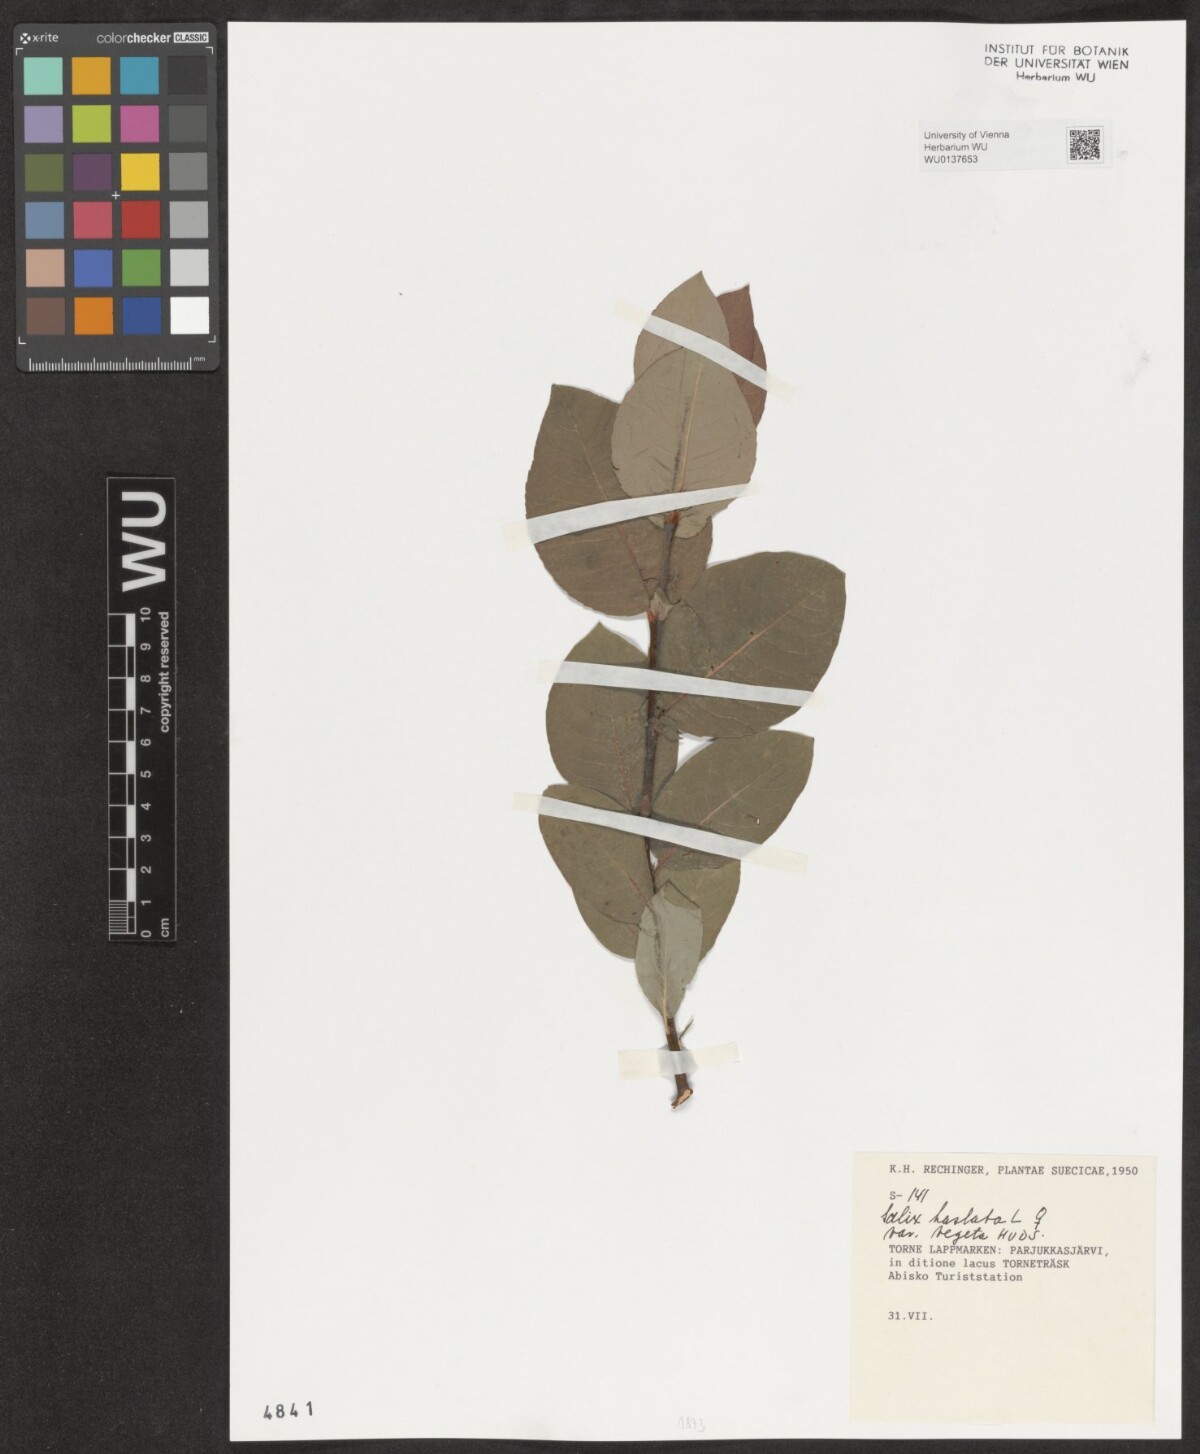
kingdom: Plantae
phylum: Tracheophyta
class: Magnoliopsida
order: Malpighiales
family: Salicaceae
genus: Salix
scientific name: Salix hastata
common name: Halberd willow
